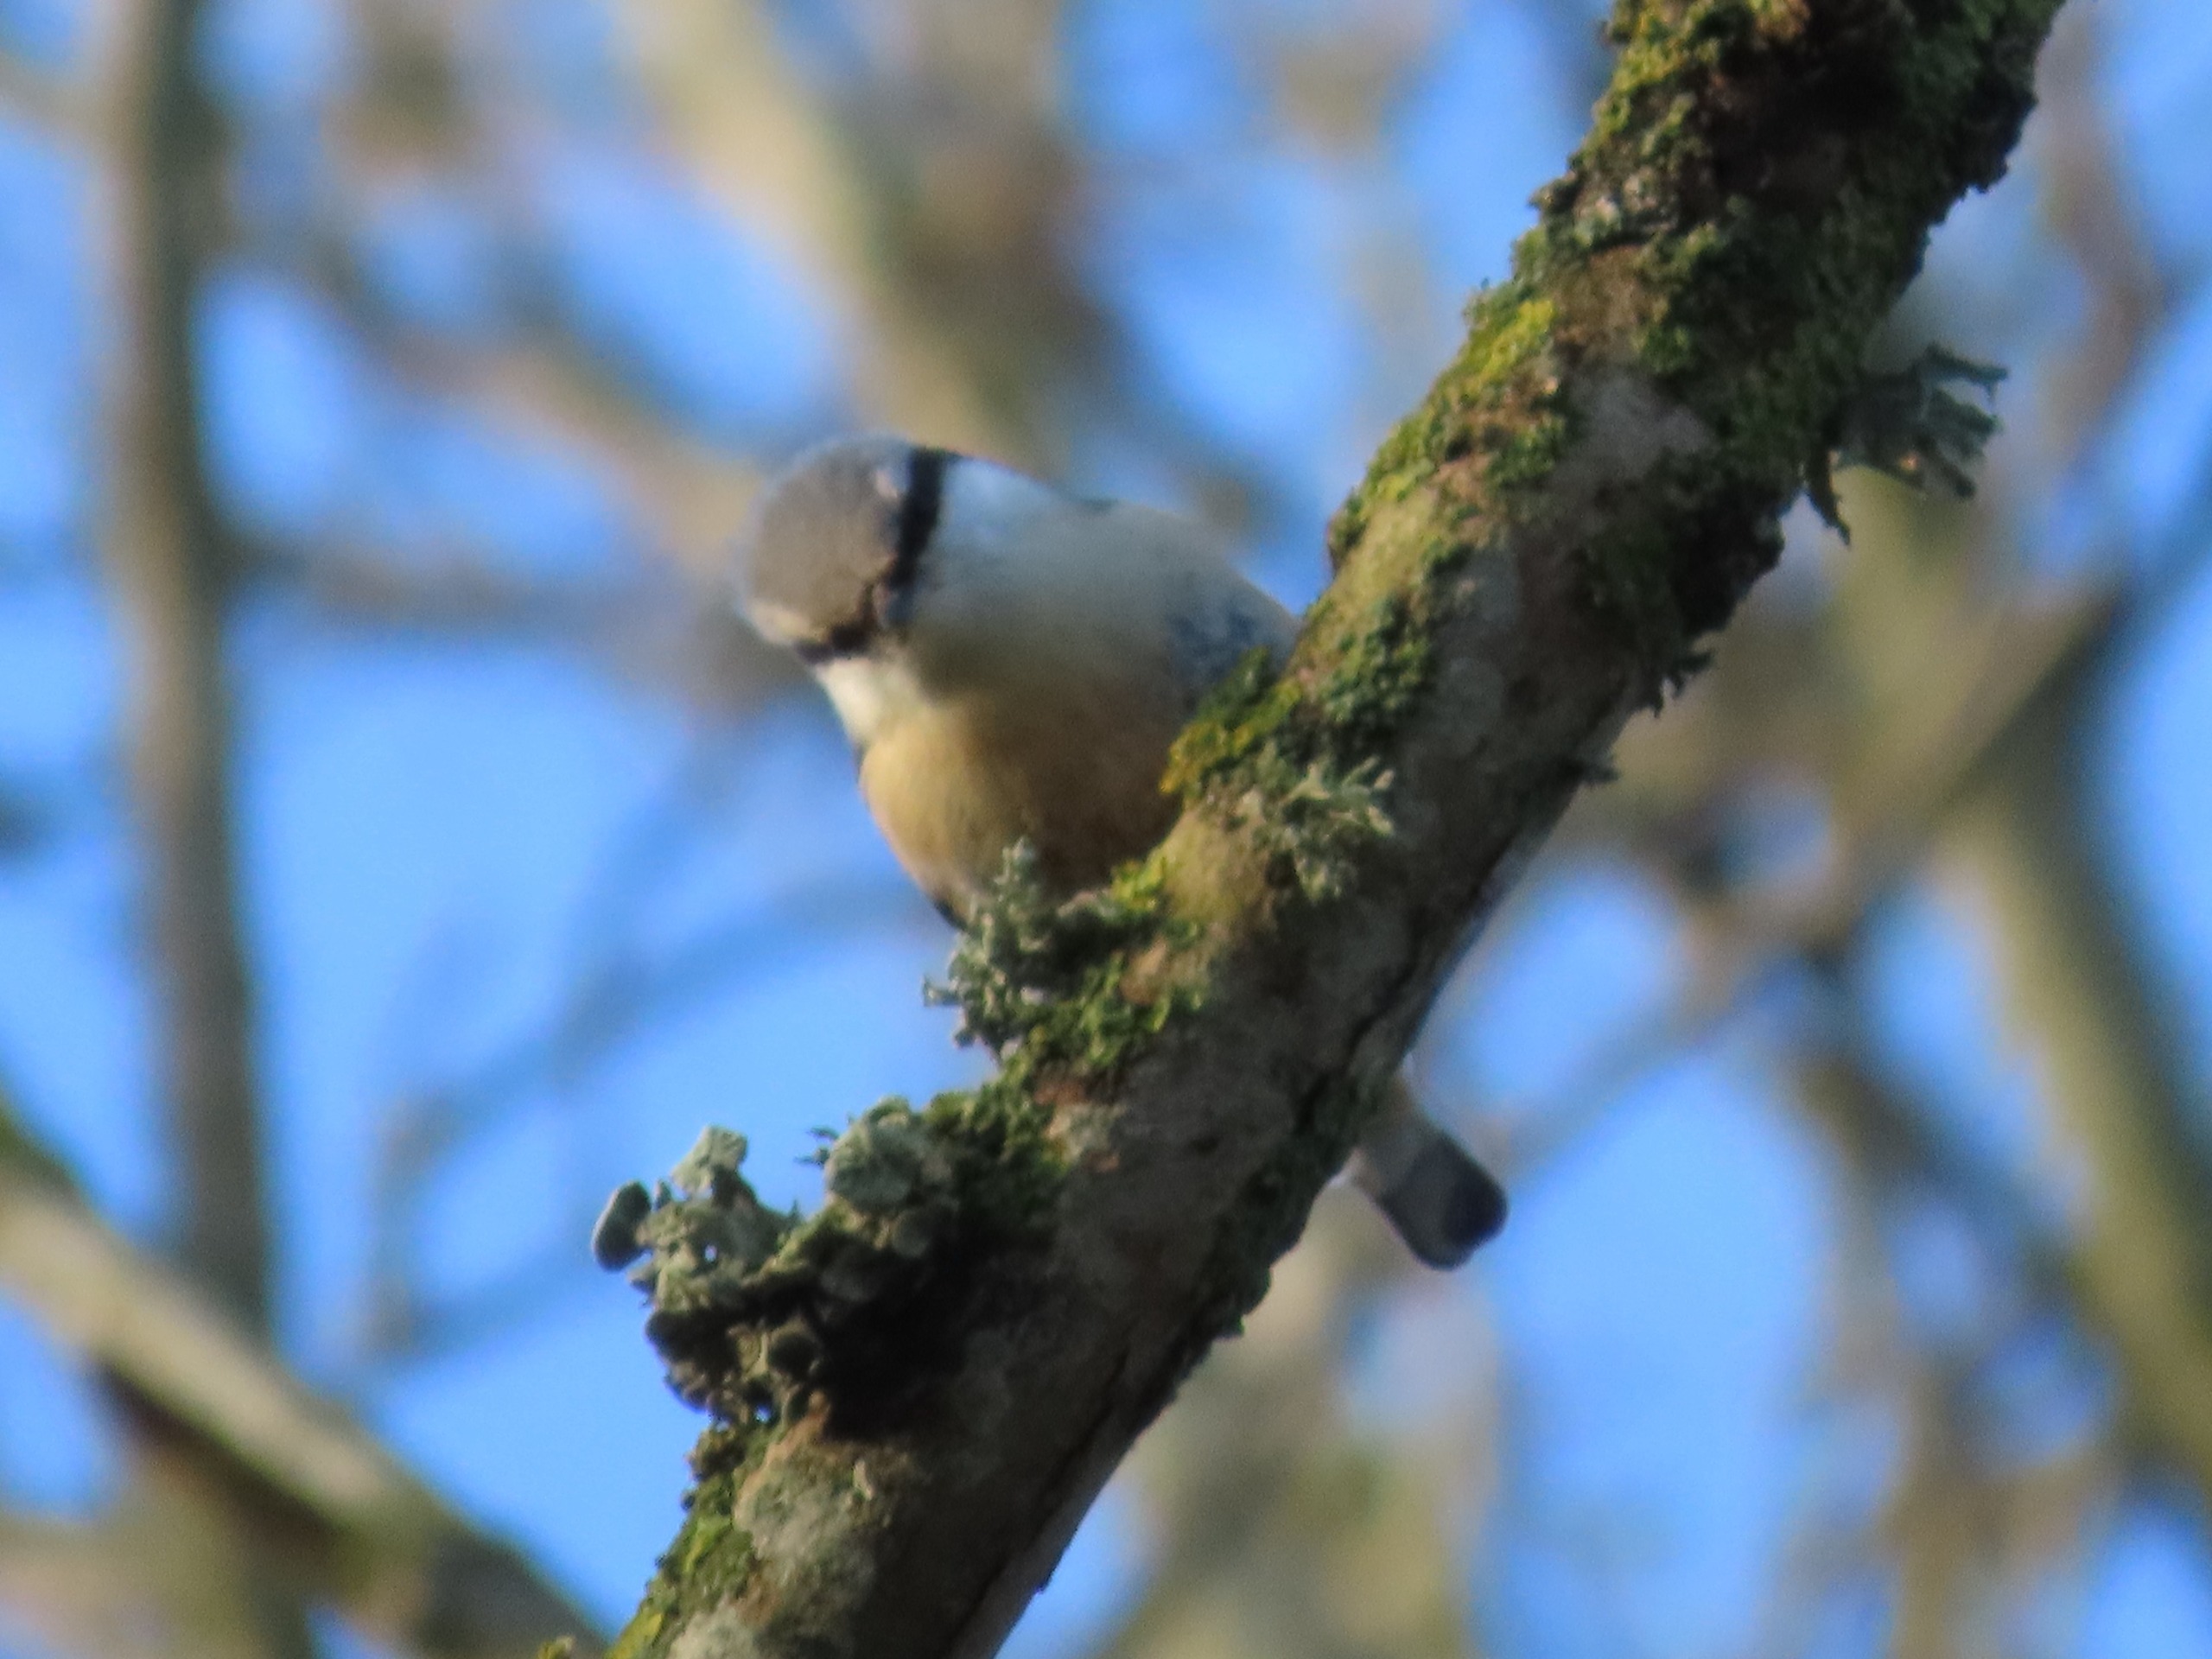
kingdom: Animalia
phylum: Chordata
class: Aves
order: Passeriformes
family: Sittidae
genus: Sitta
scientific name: Sitta europaea
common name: Spætmejse
